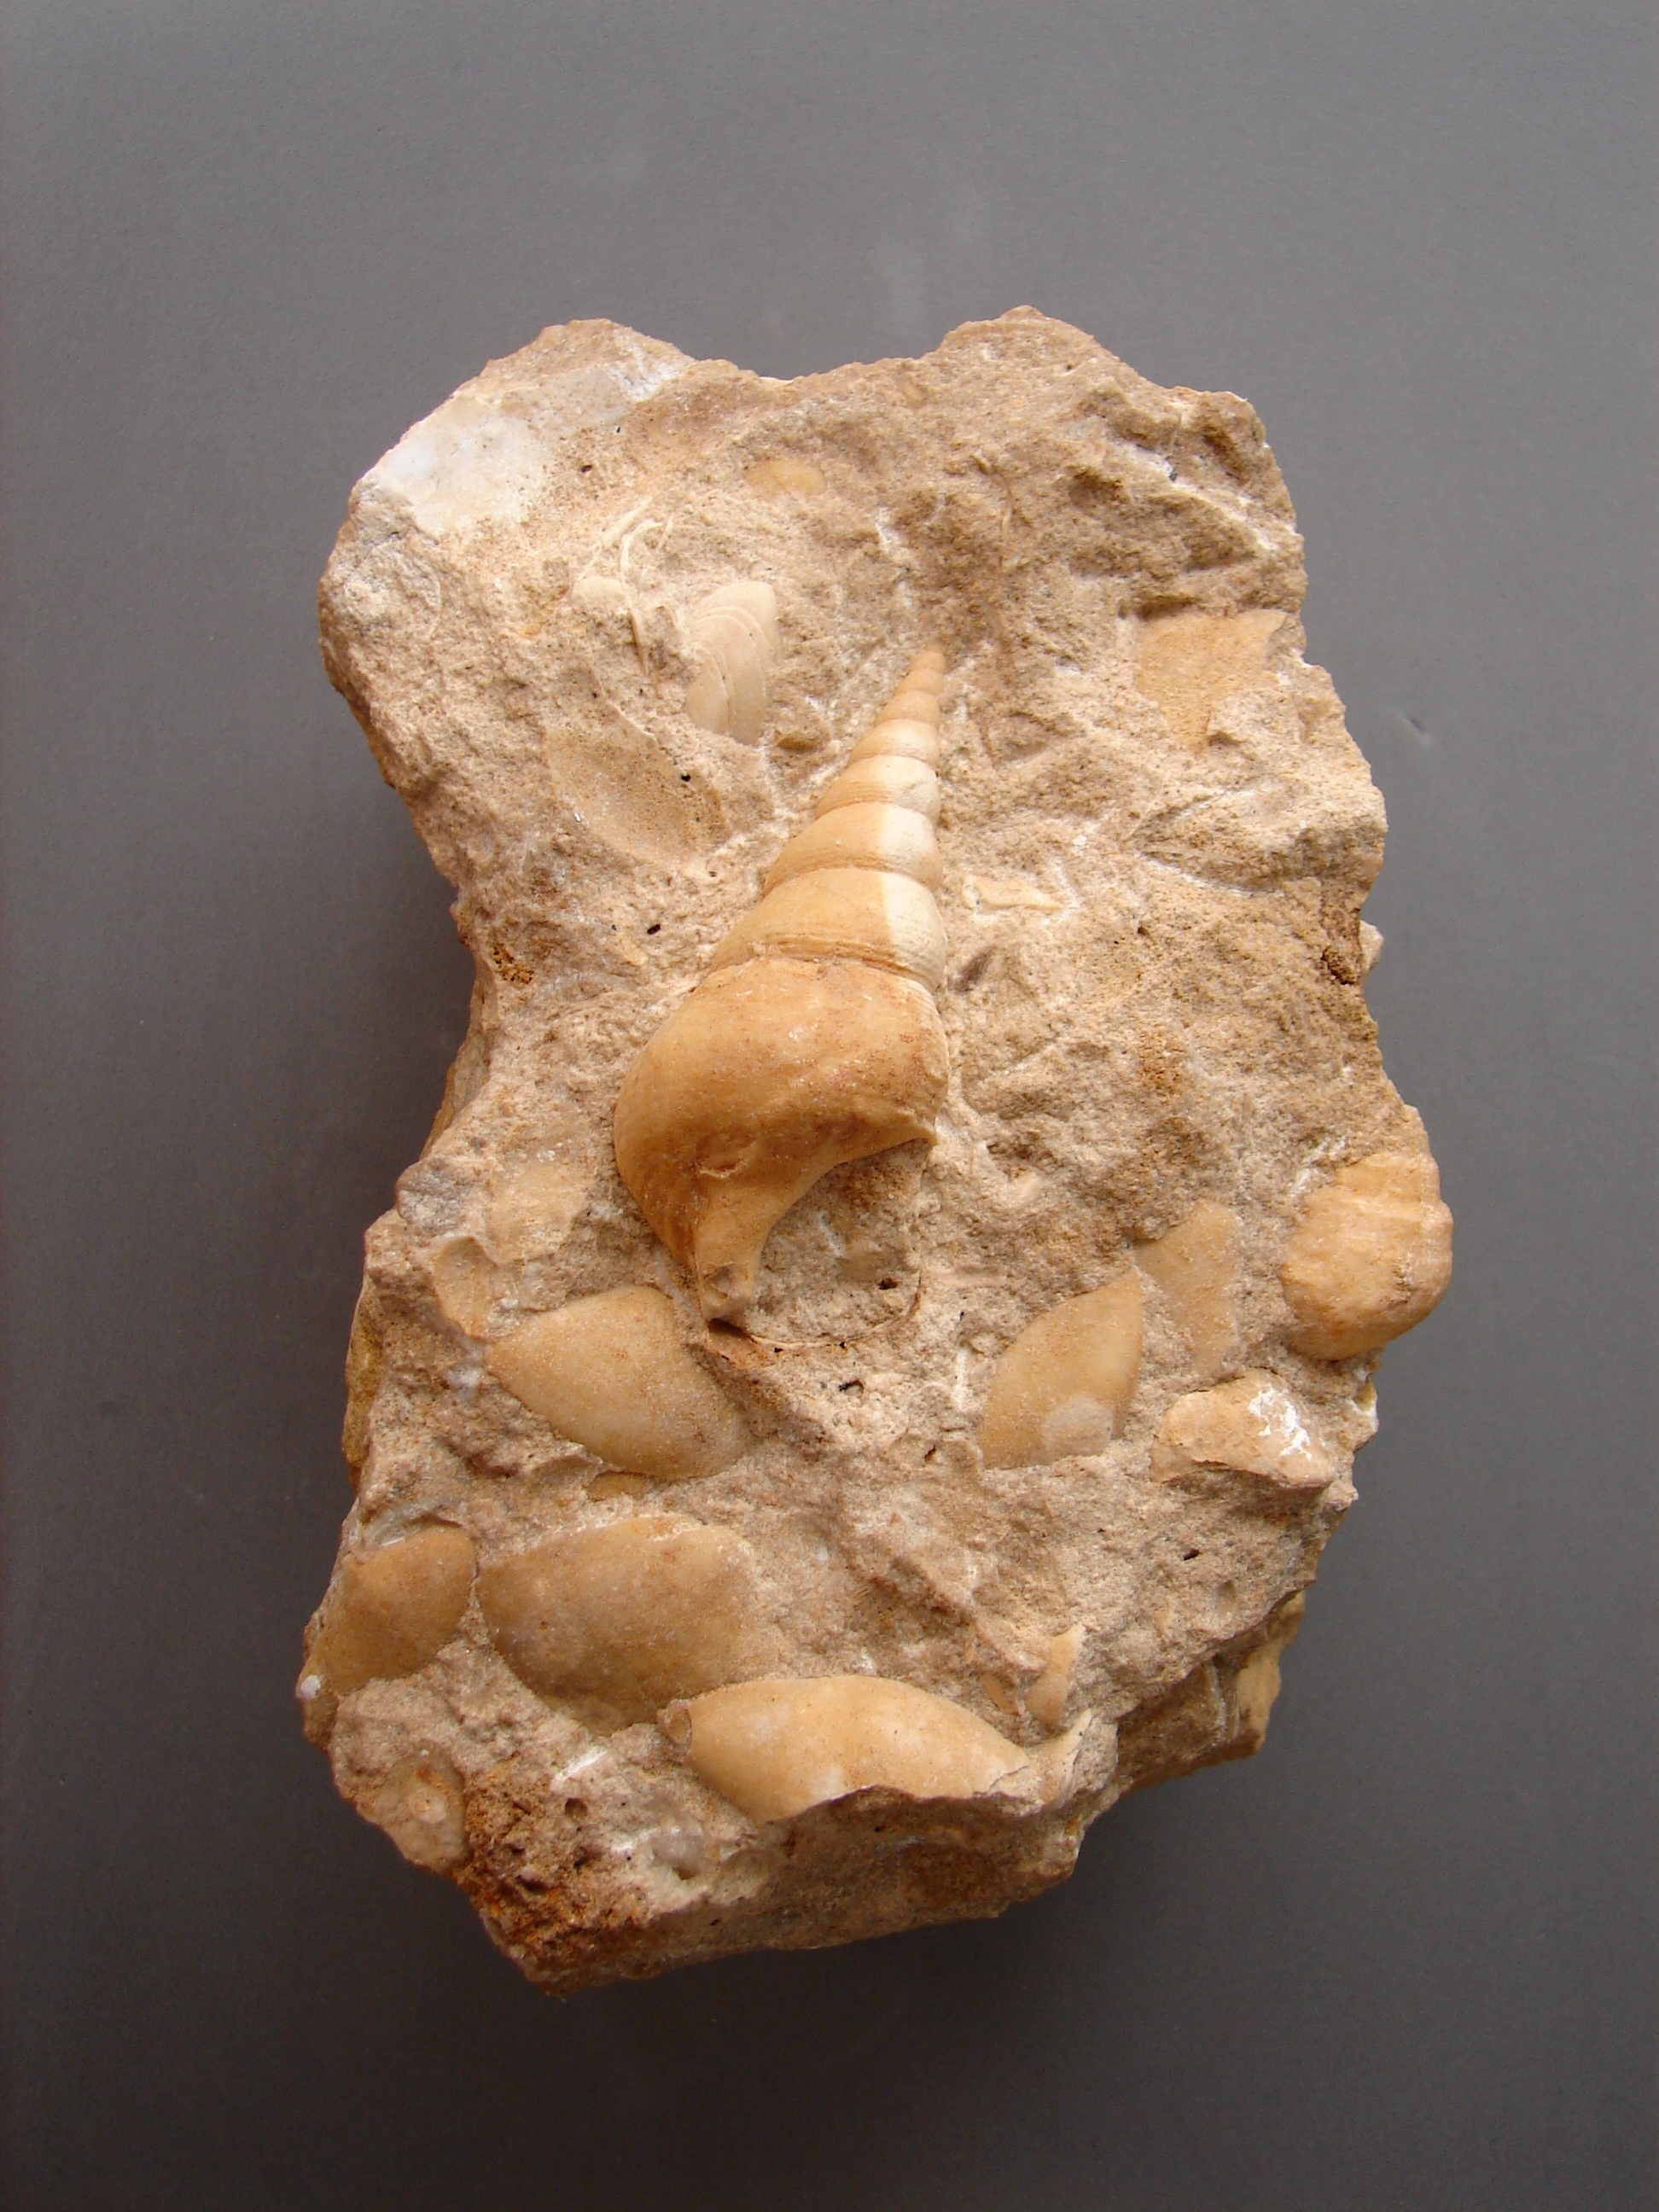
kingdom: Animalia
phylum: Mollusca
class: Gastropoda
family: Pseudomelaniidae
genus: Bourgetia
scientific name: Bourgetia Turritella deshayesea
